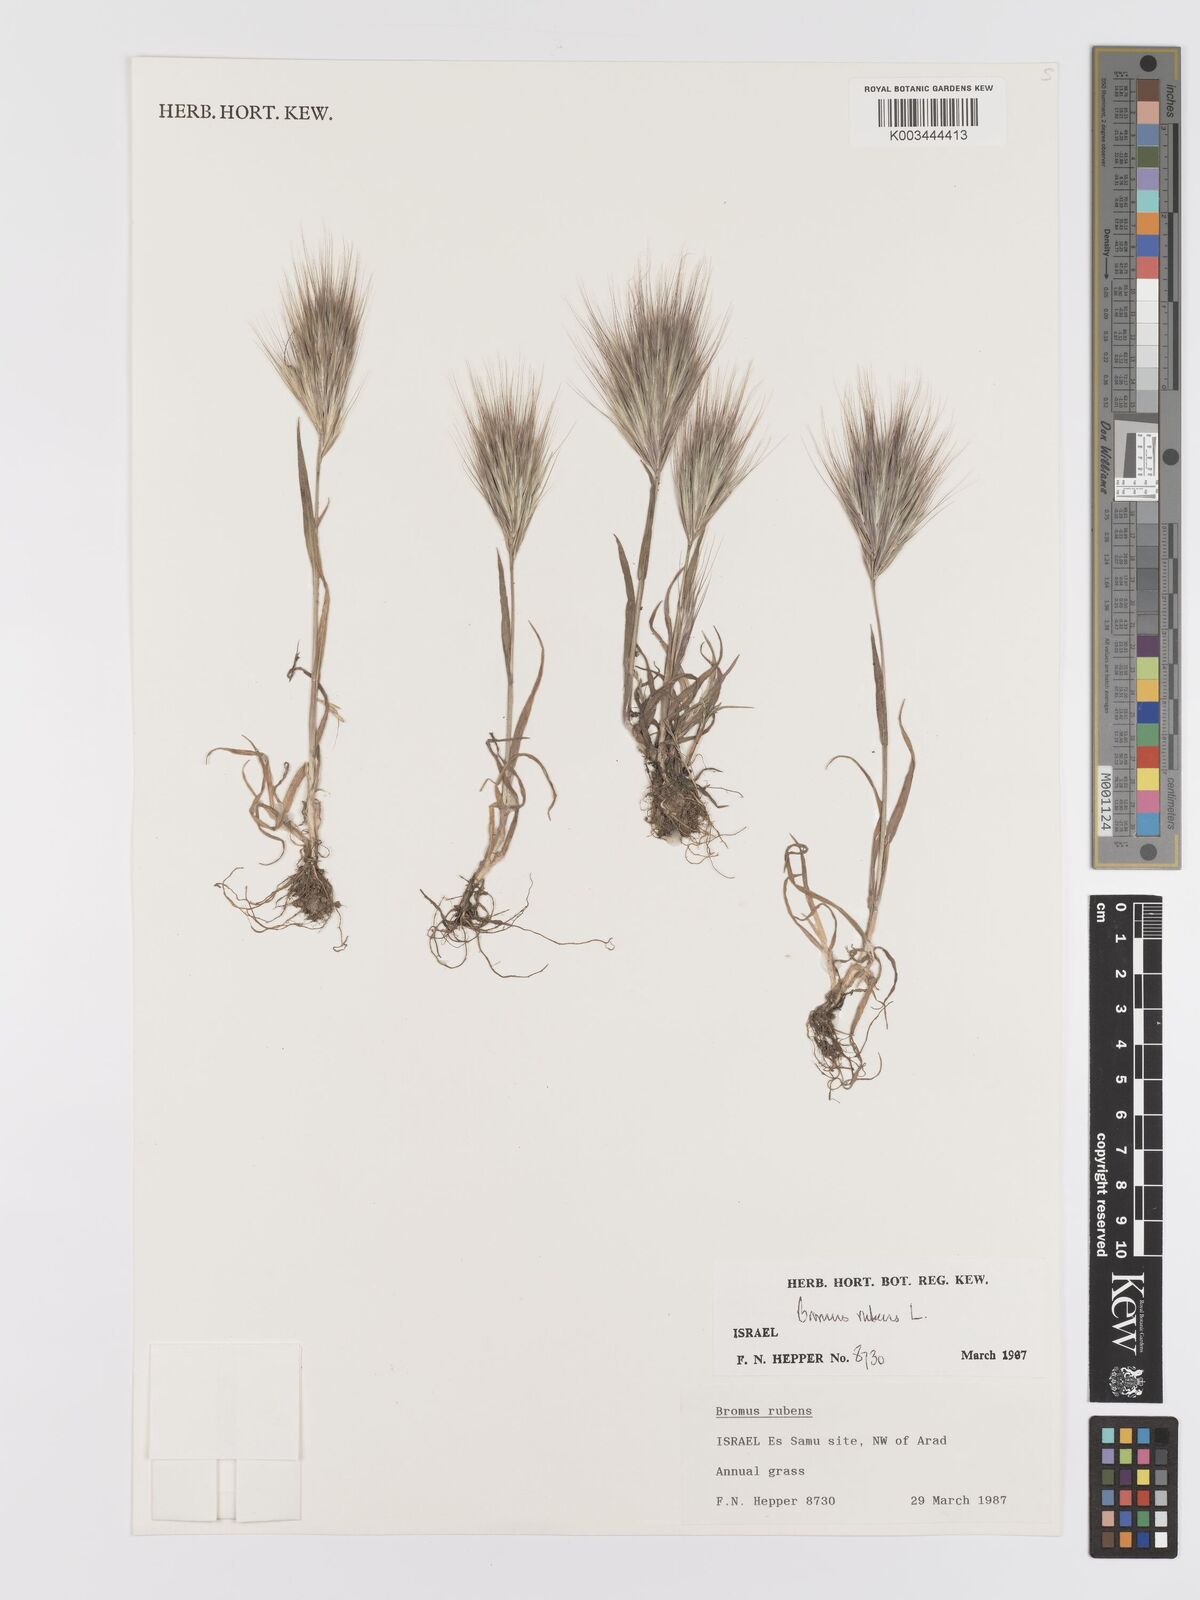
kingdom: Plantae
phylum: Tracheophyta
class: Liliopsida
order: Poales
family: Poaceae
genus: Bromus
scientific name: Bromus rubens
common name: Red brome
